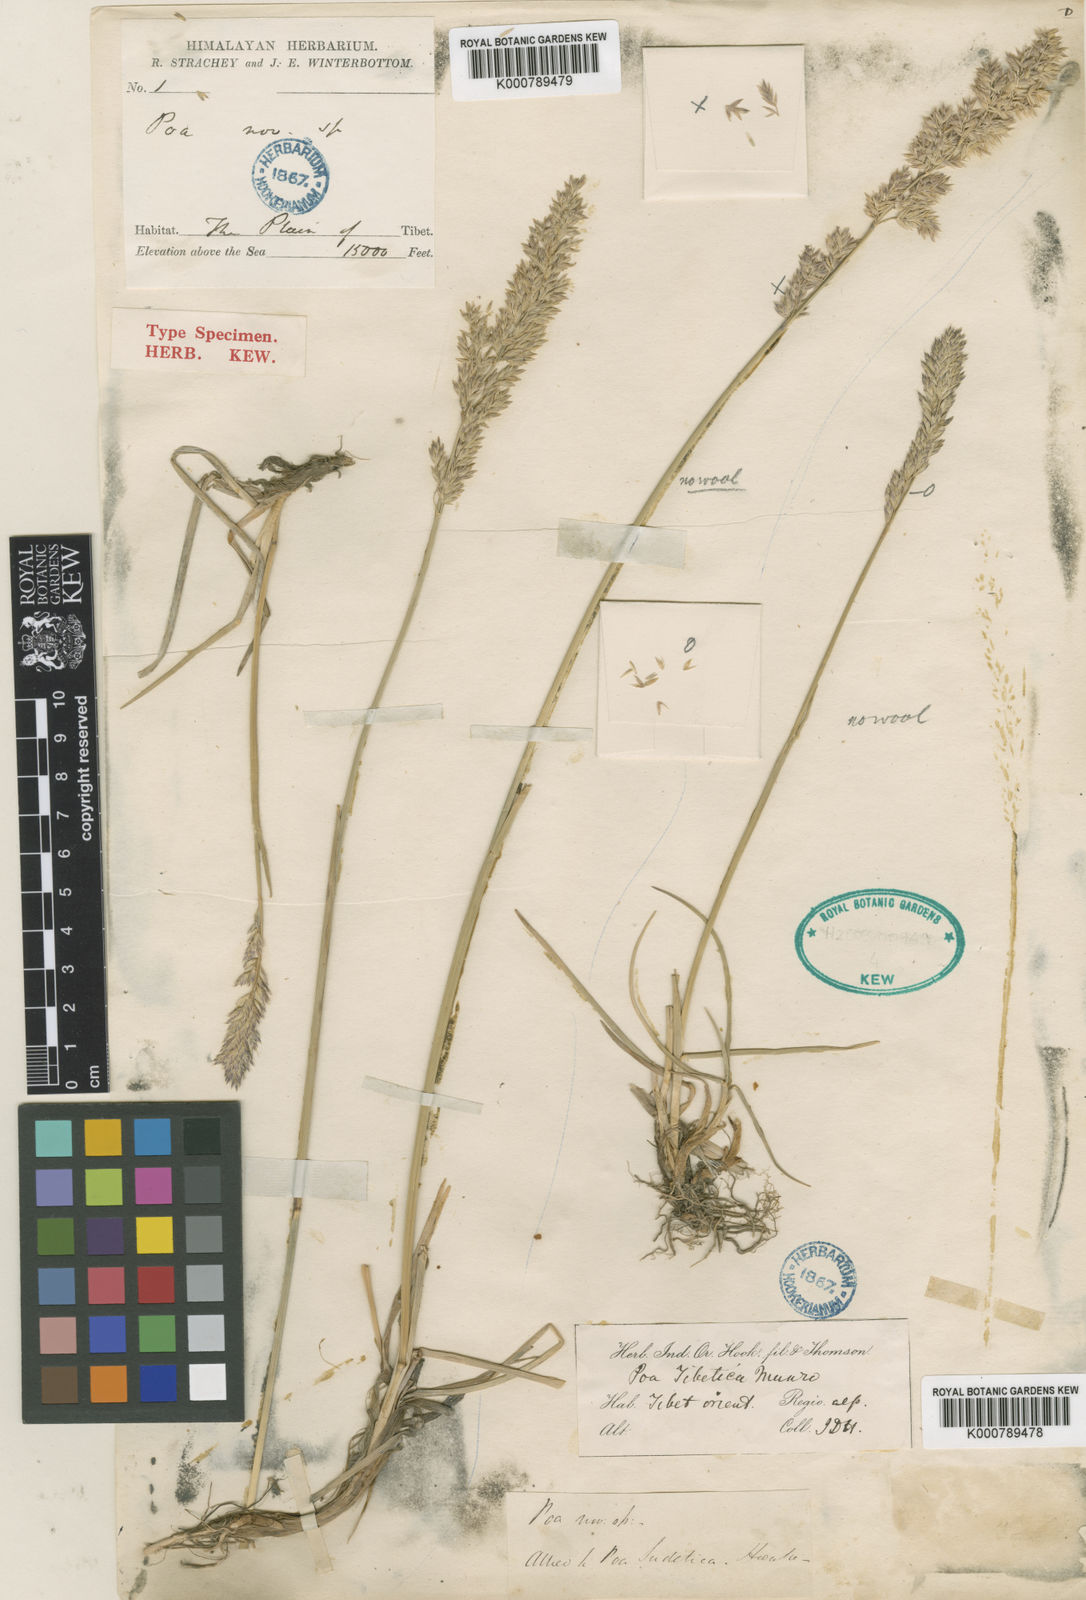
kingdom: Plantae
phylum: Tracheophyta
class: Liliopsida
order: Poales
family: Poaceae
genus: Arctopoa
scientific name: Arctopoa tibetica
